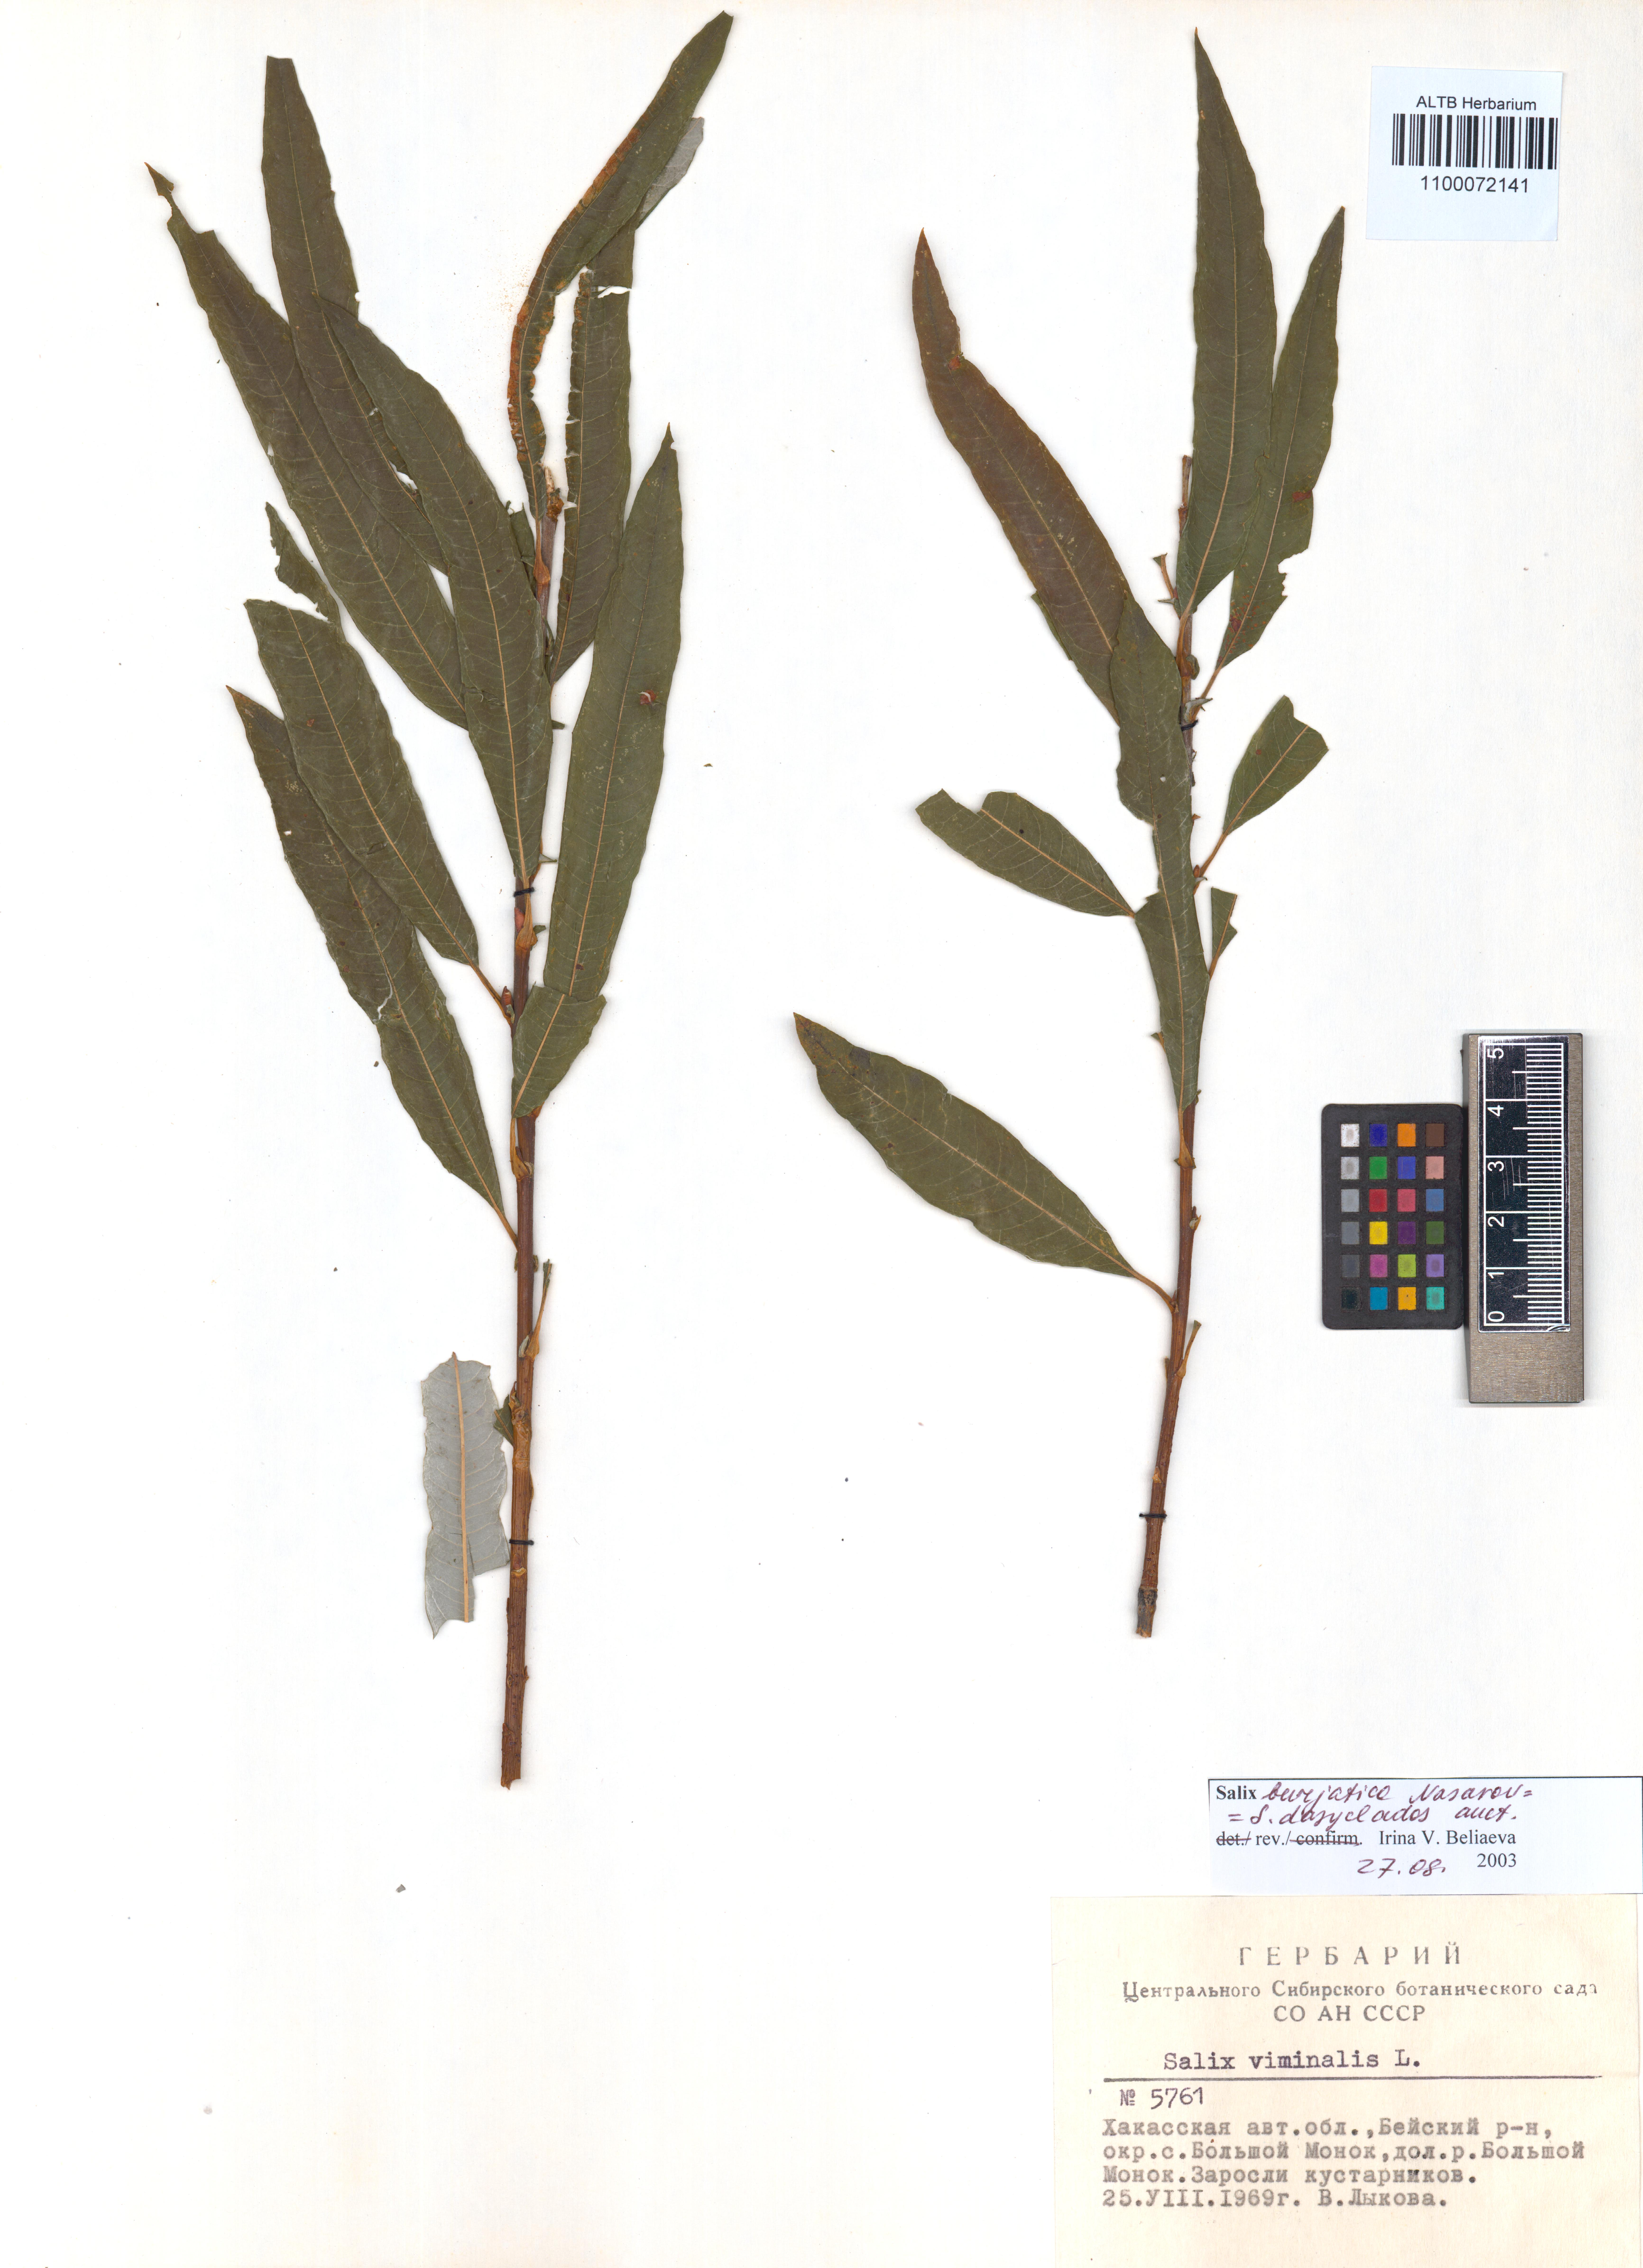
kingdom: Plantae
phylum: Tracheophyta
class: Magnoliopsida
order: Malpighiales
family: Salicaceae
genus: Salix
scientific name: Salix gmelinii
